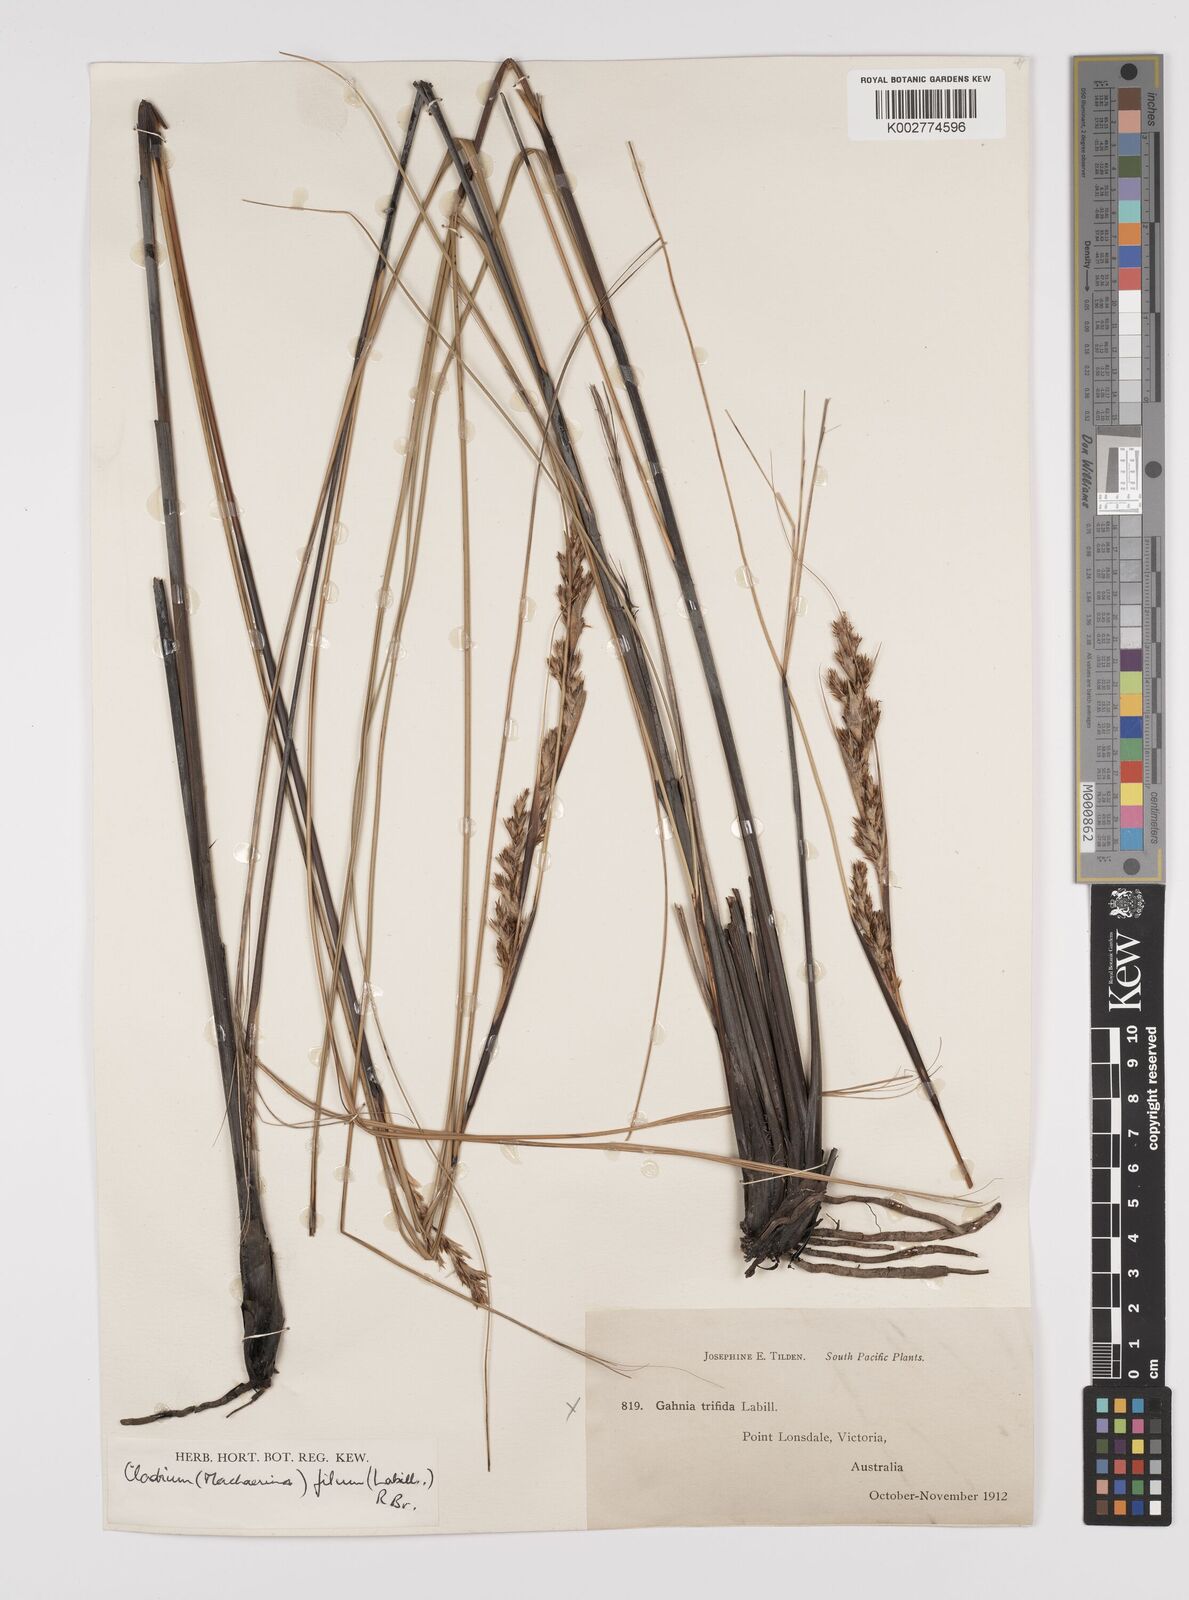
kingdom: Plantae
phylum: Tracheophyta
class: Liliopsida
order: Poales
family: Cyperaceae
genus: Gahnia
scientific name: Gahnia filum
